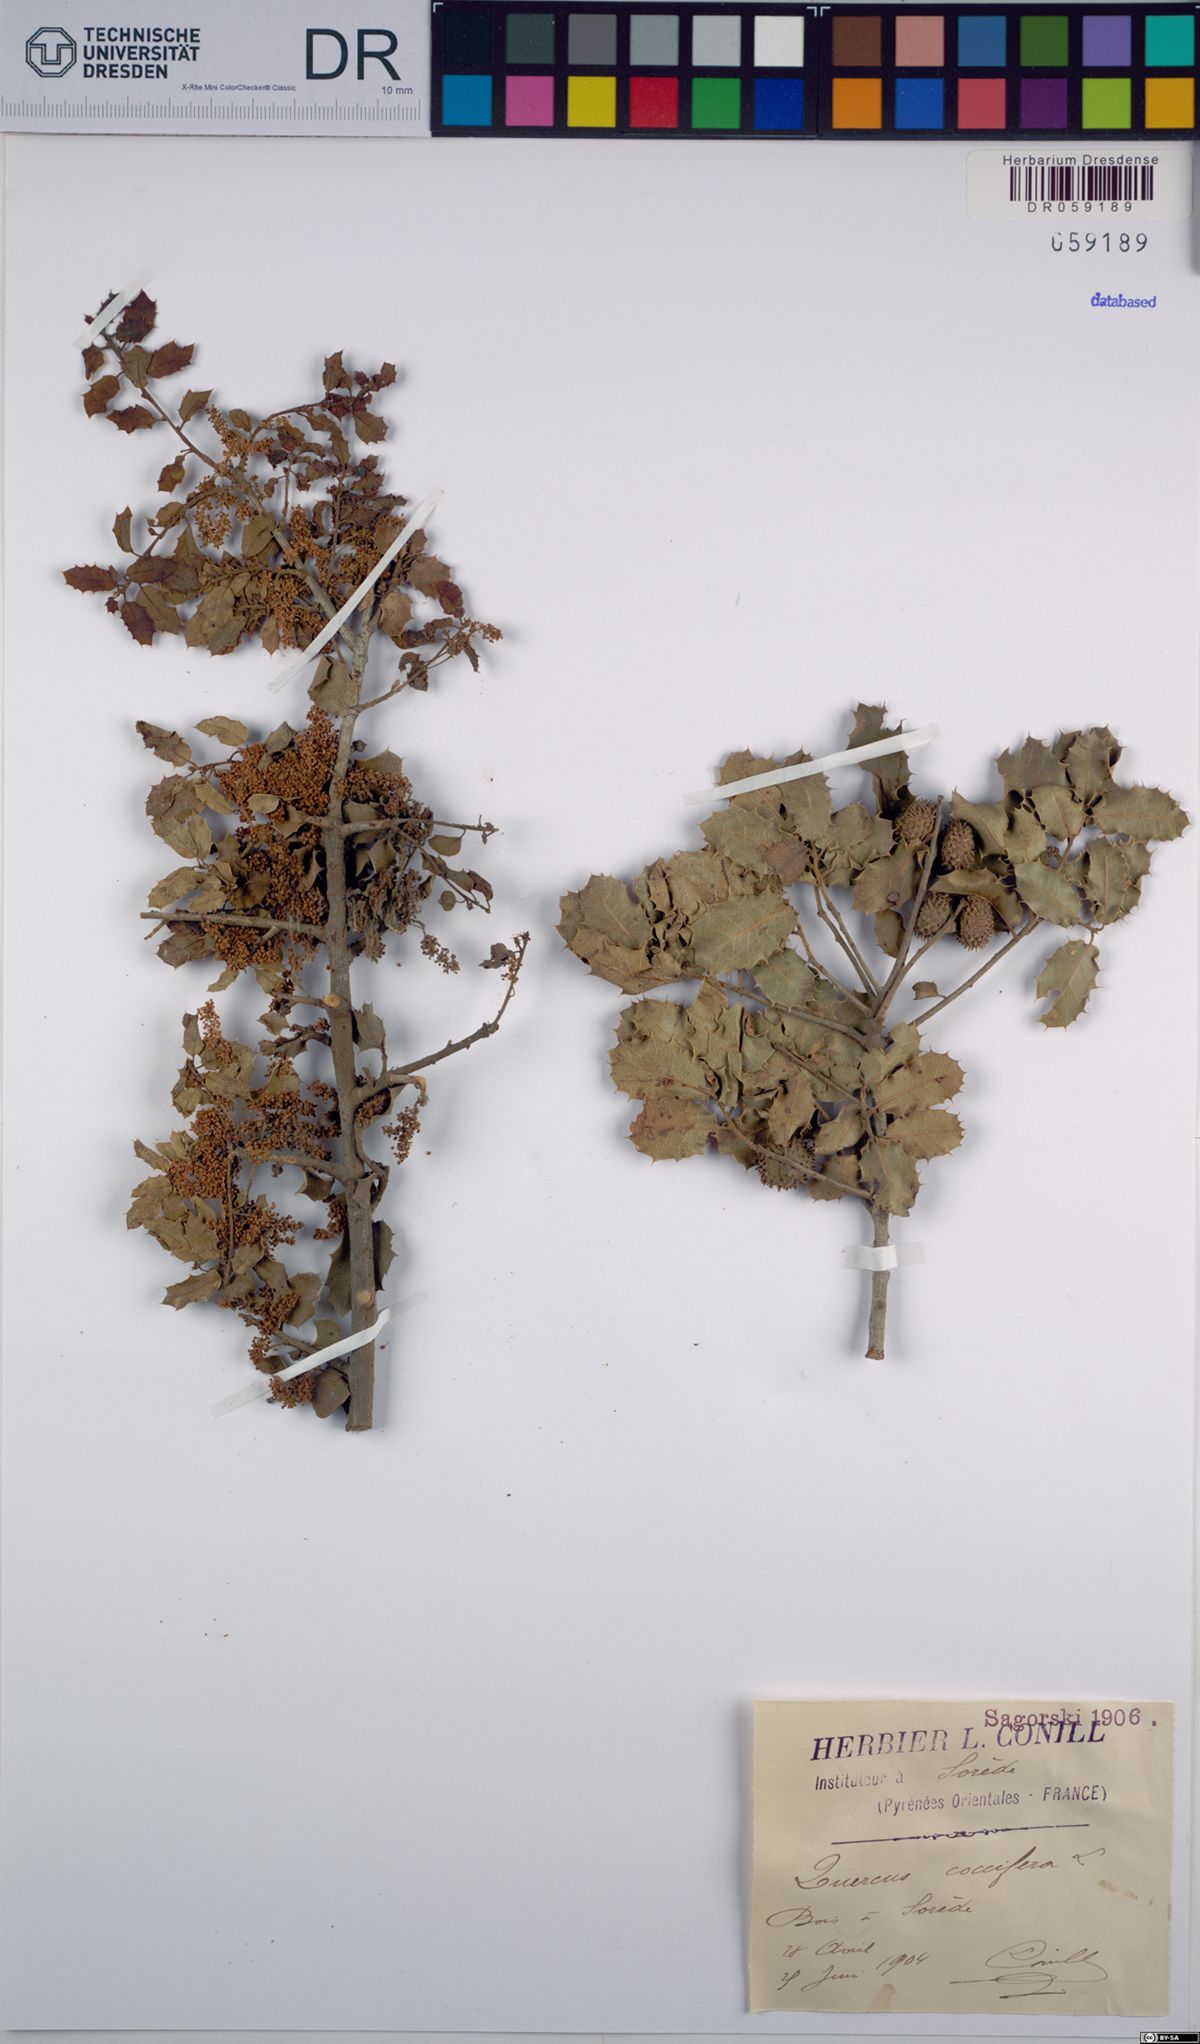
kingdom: Plantae
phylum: Tracheophyta
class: Magnoliopsida
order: Fagales
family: Fagaceae
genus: Quercus
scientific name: Quercus coccifera
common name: Kermes oak
